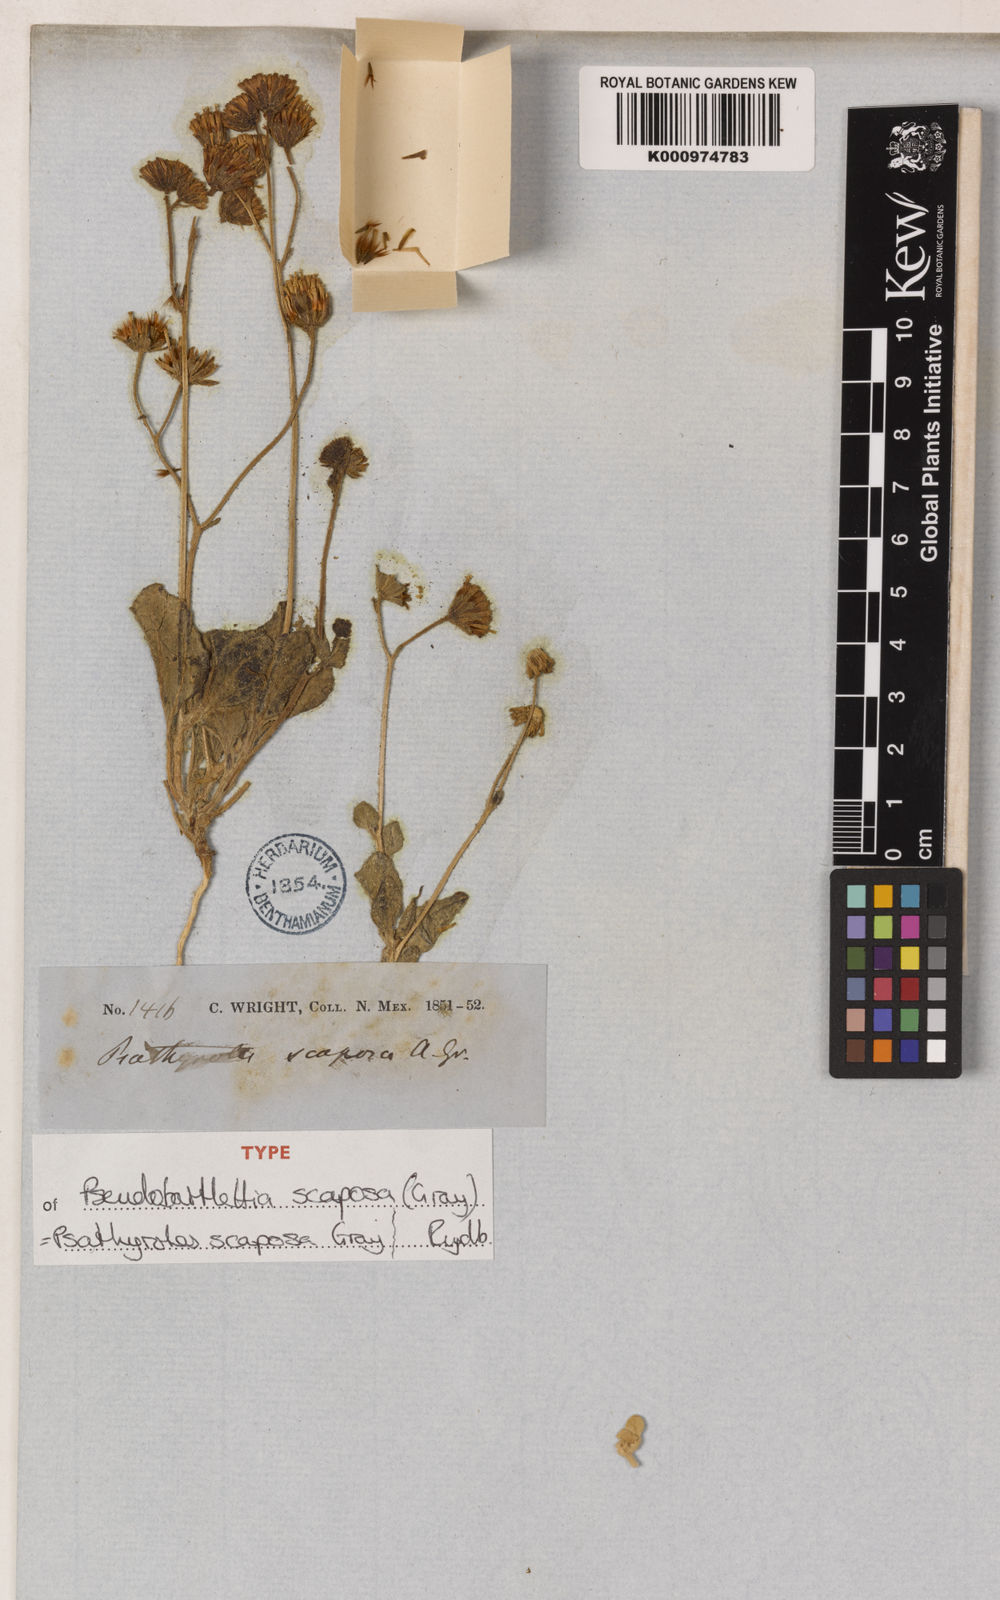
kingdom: Plantae
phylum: Tracheophyta
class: Magnoliopsida
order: Asterales
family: Asteraceae
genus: Psathyrotopsis
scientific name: Psathyrotopsis scaposa
